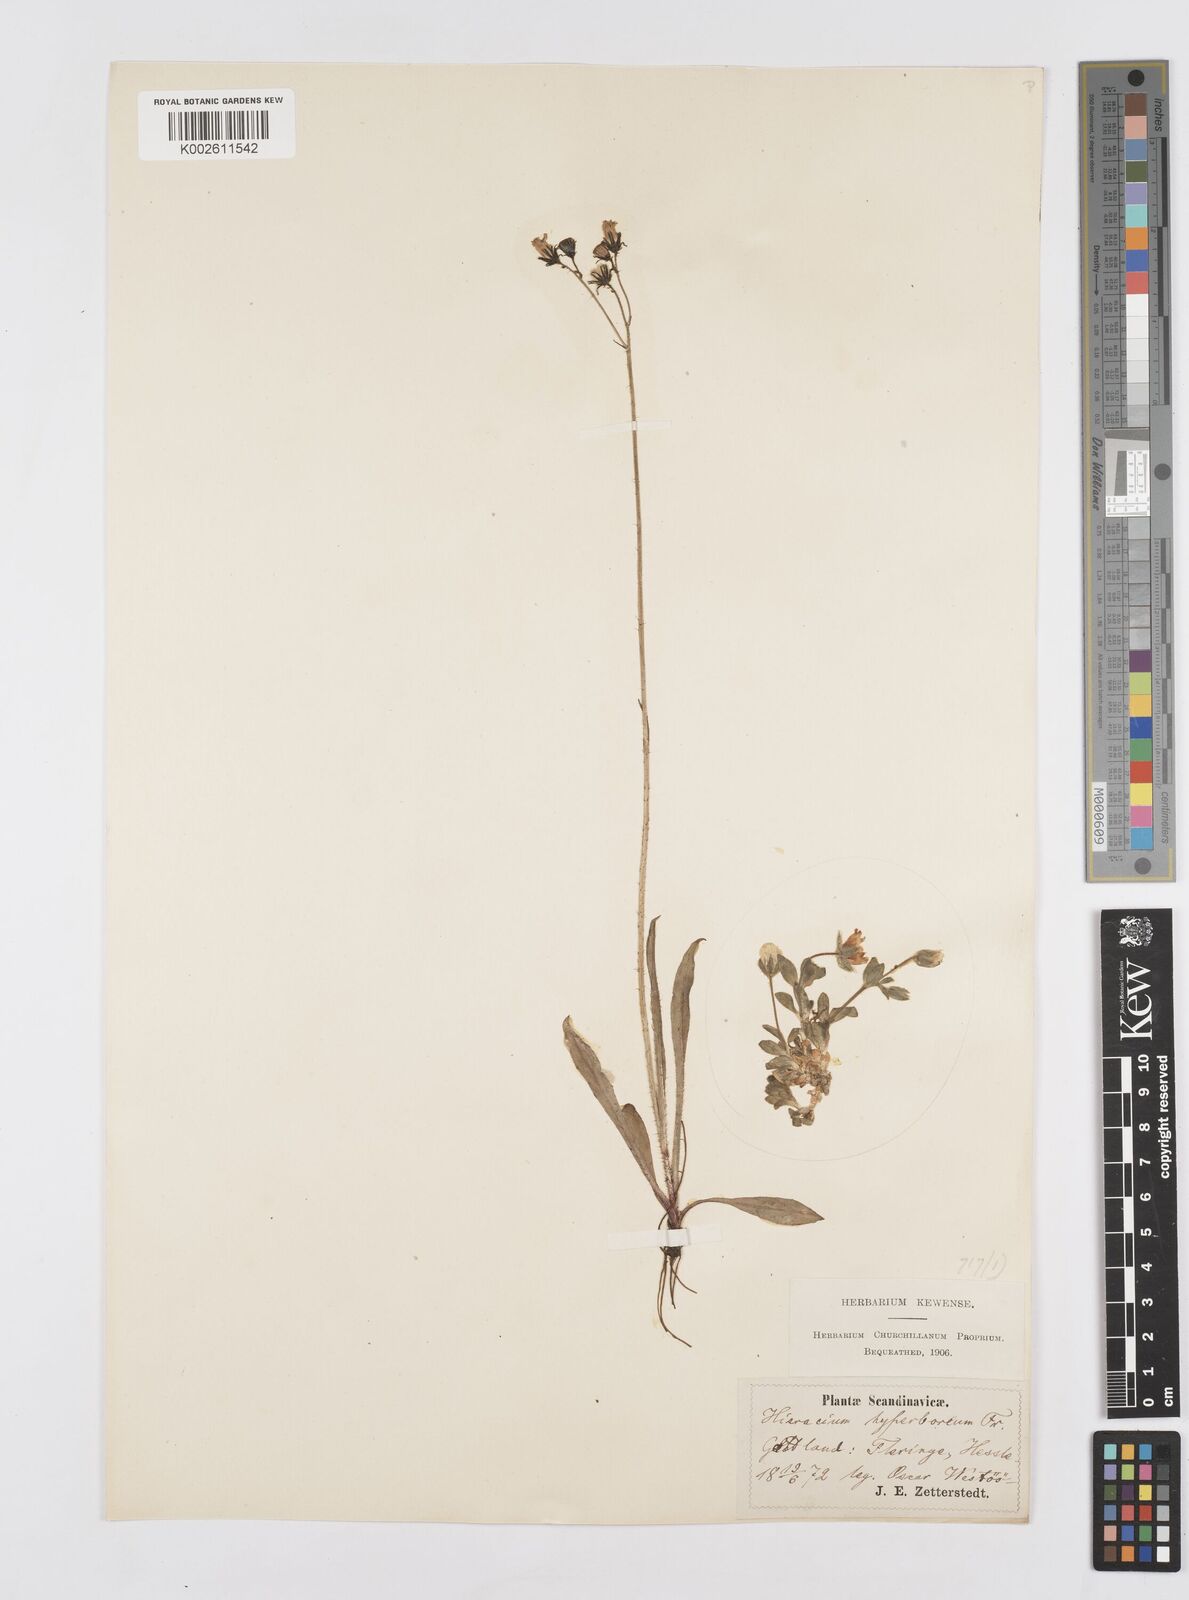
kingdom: Plantae
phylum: Tracheophyta
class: Magnoliopsida
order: Asterales
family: Asteraceae
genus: Pilosella
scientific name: Pilosella hyperborea
